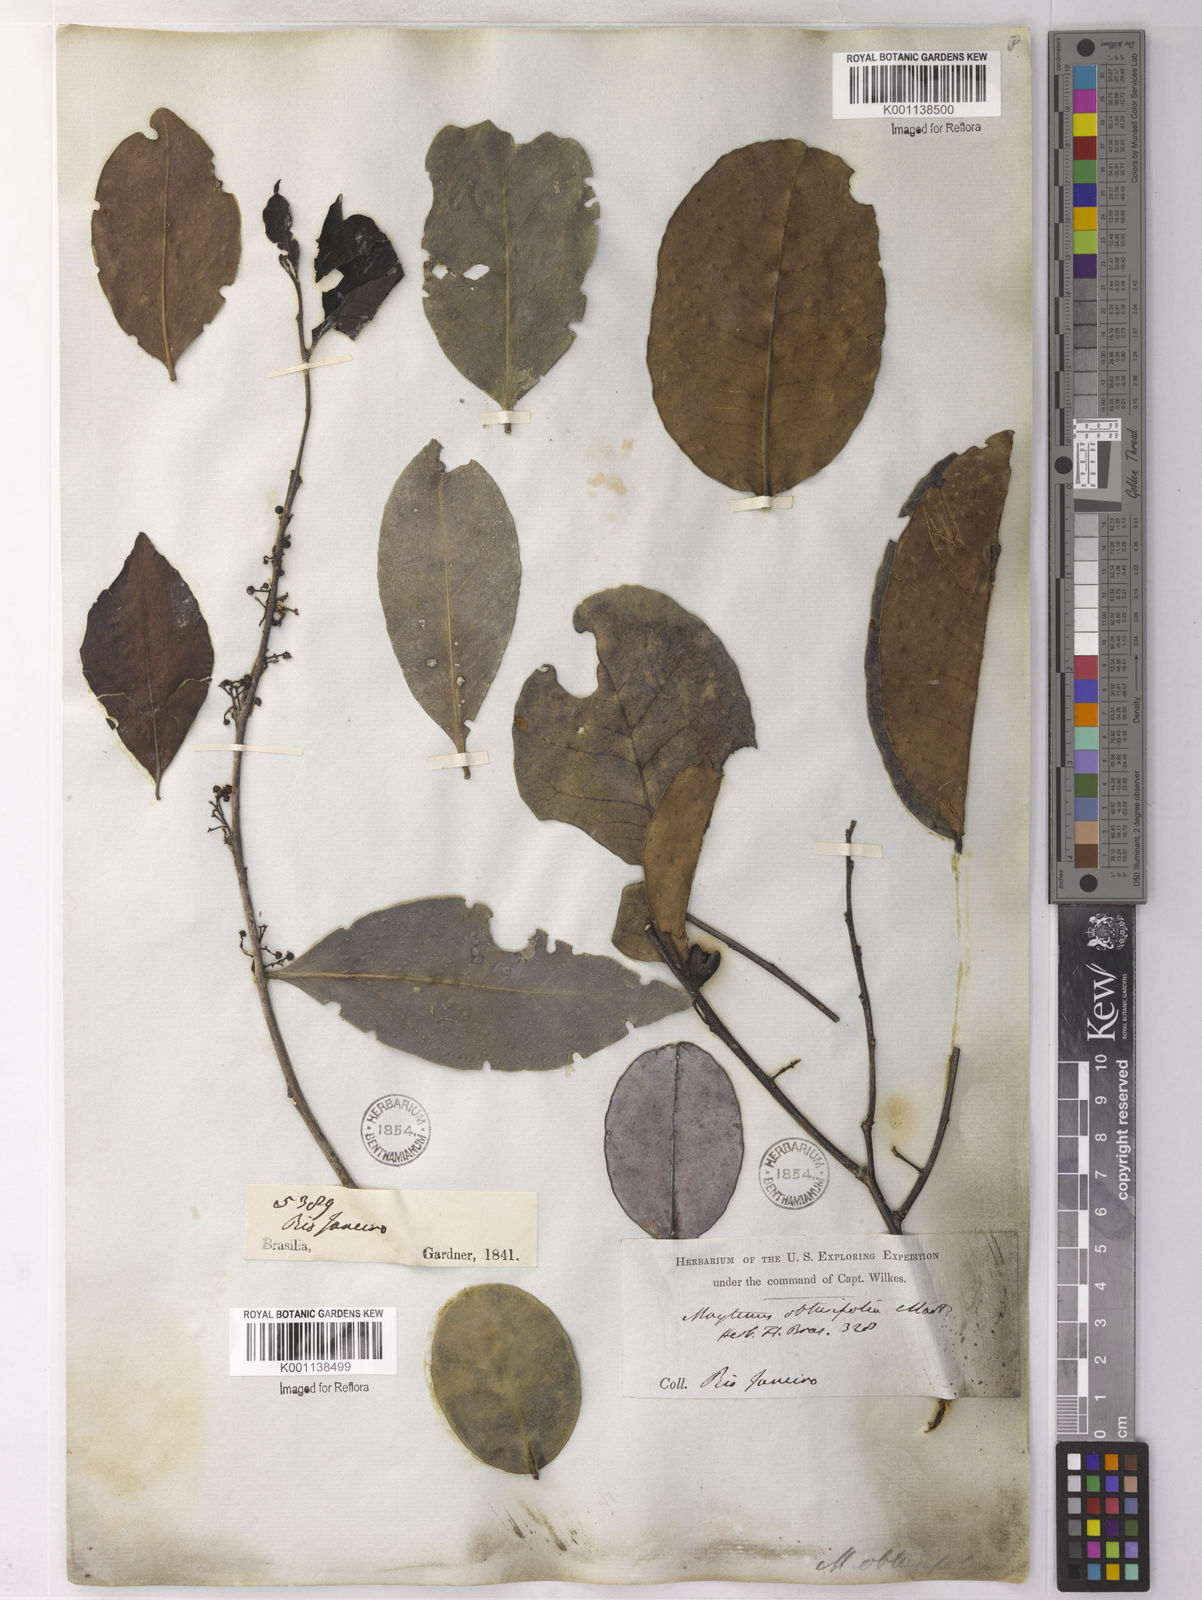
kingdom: Plantae
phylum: Tracheophyta
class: Magnoliopsida
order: Celastrales
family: Celastraceae
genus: Monteverdia
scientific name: Monteverdia obtusifolia
